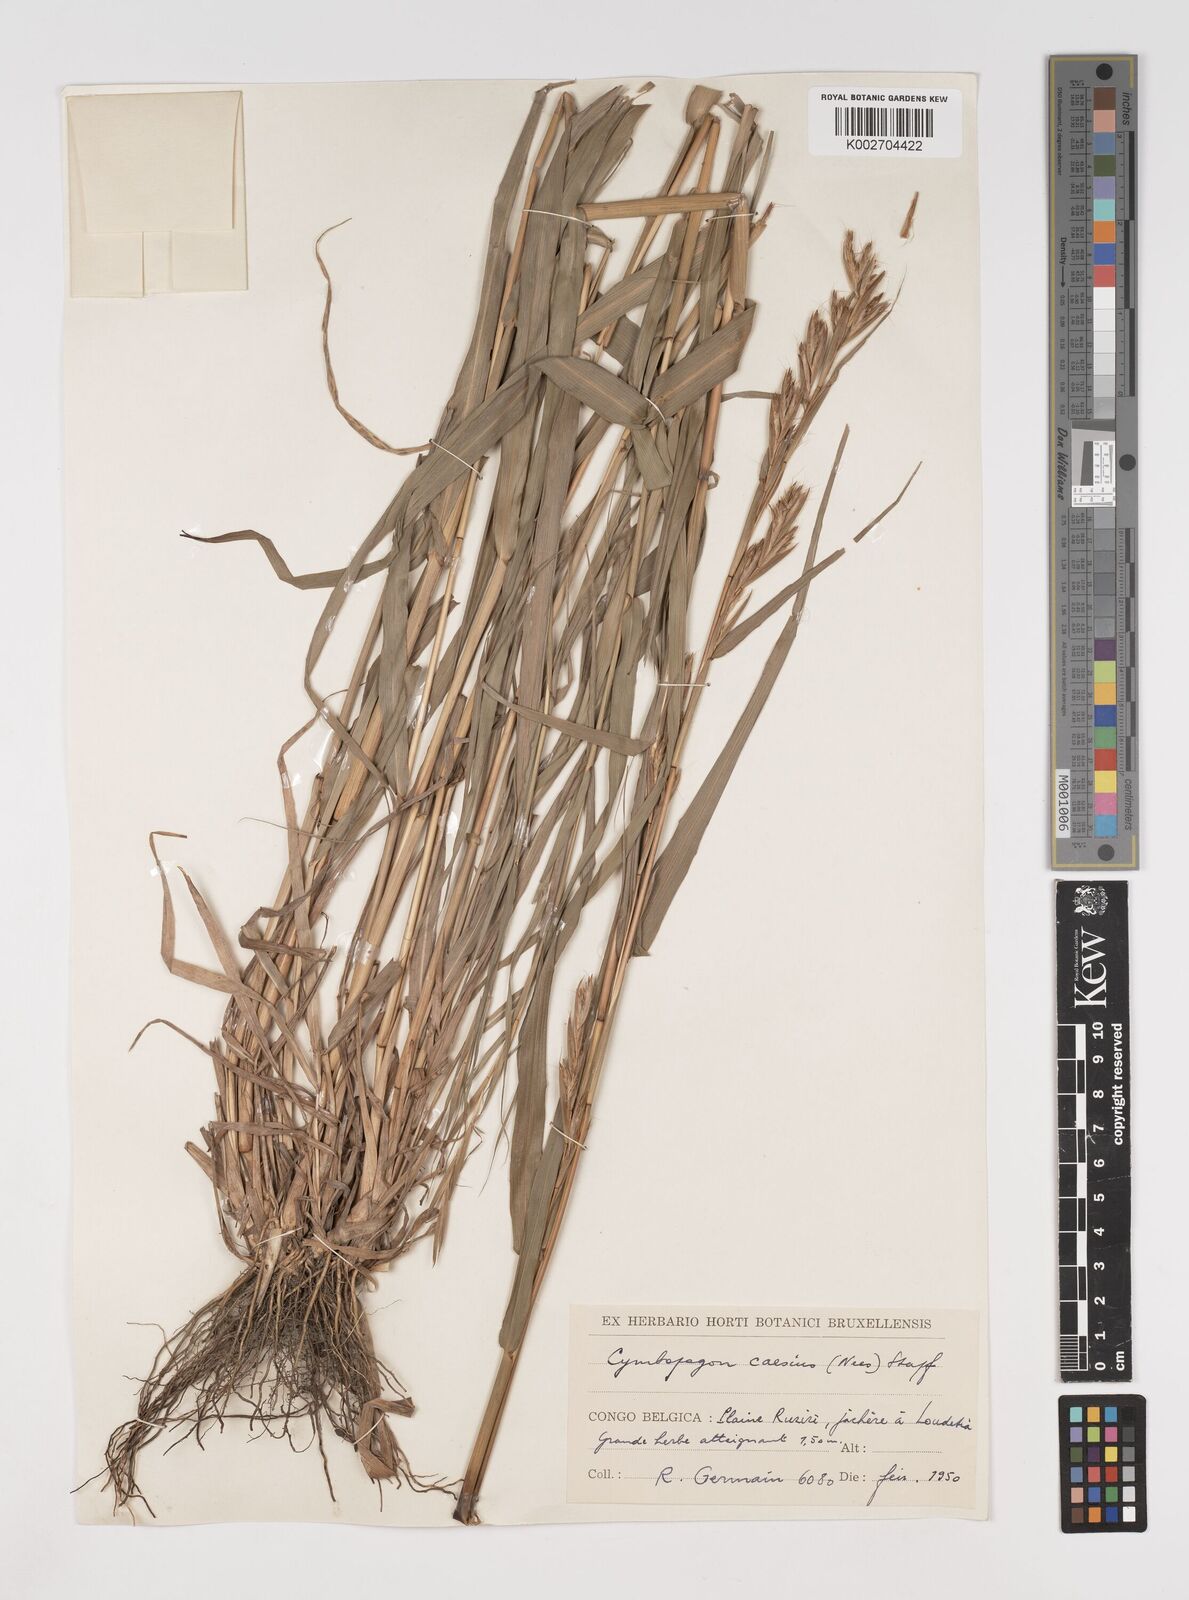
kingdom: Plantae
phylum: Tracheophyta
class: Liliopsida
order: Poales
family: Poaceae
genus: Cymbopogon
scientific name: Cymbopogon giganteus
